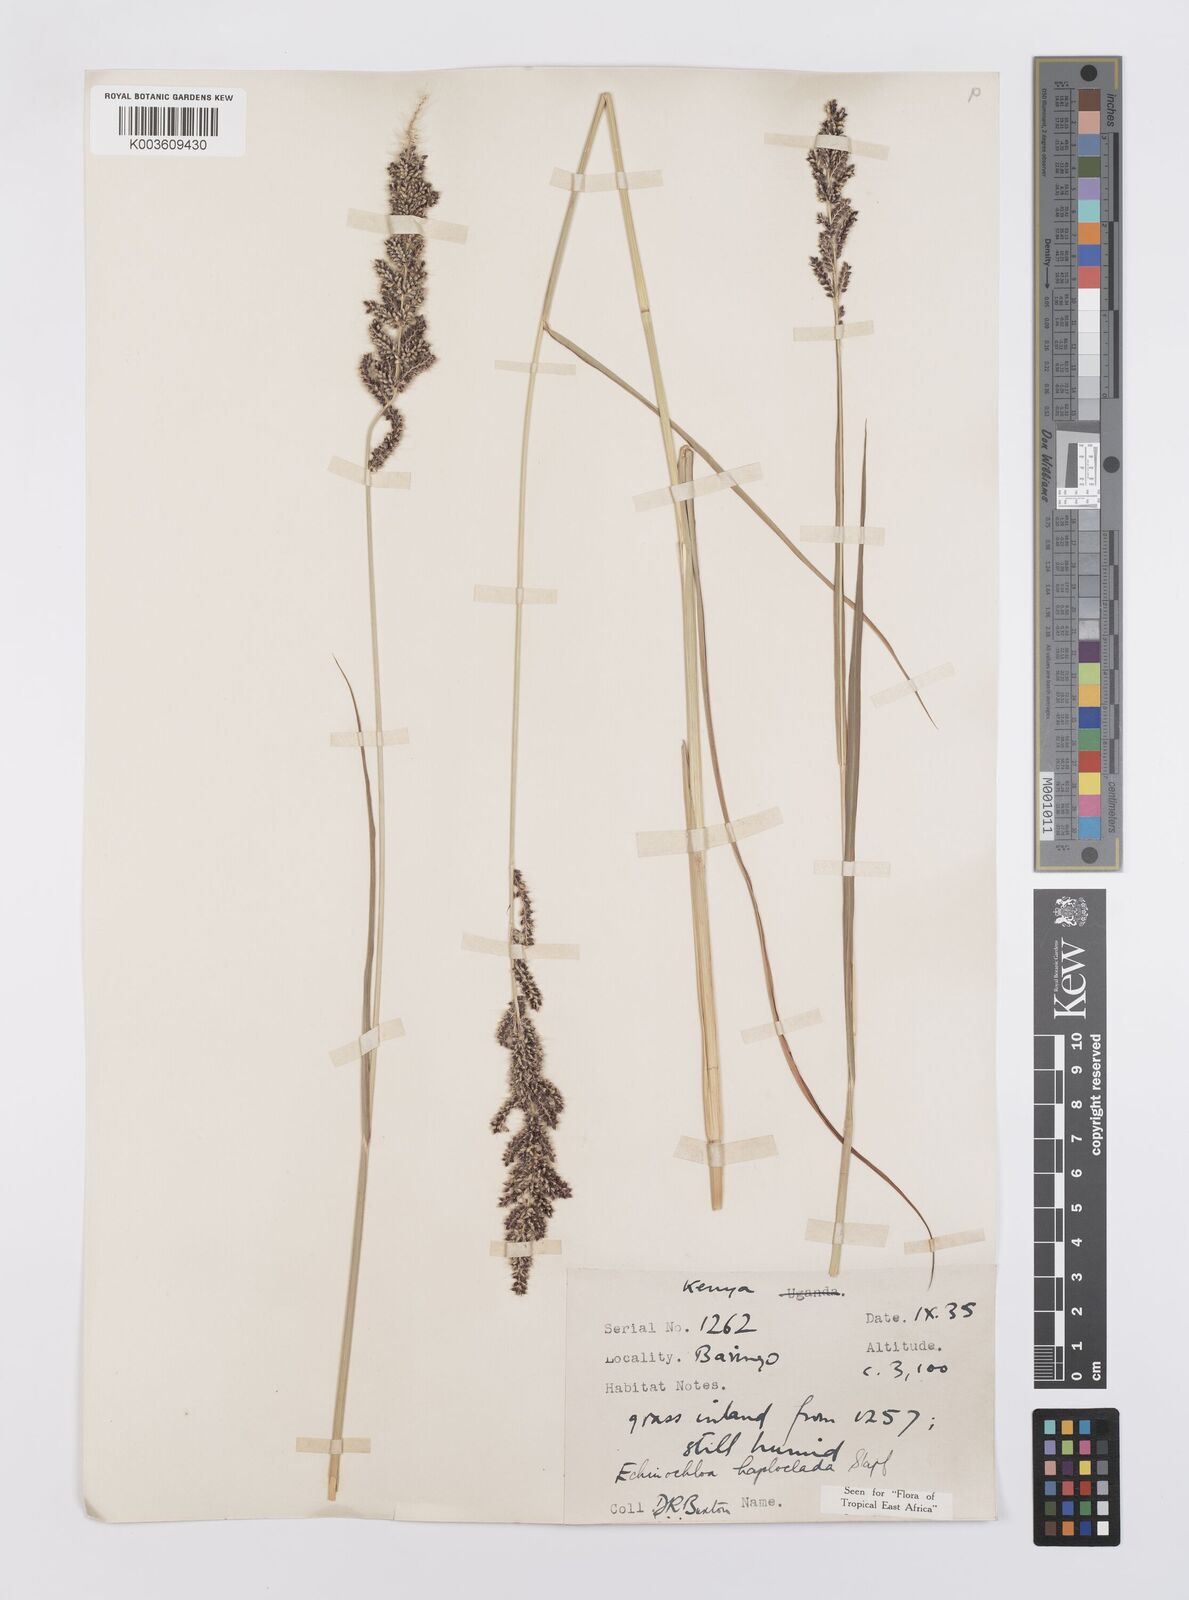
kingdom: Plantae
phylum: Tracheophyta
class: Liliopsida
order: Poales
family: Poaceae
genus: Echinochloa
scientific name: Echinochloa haploclada
